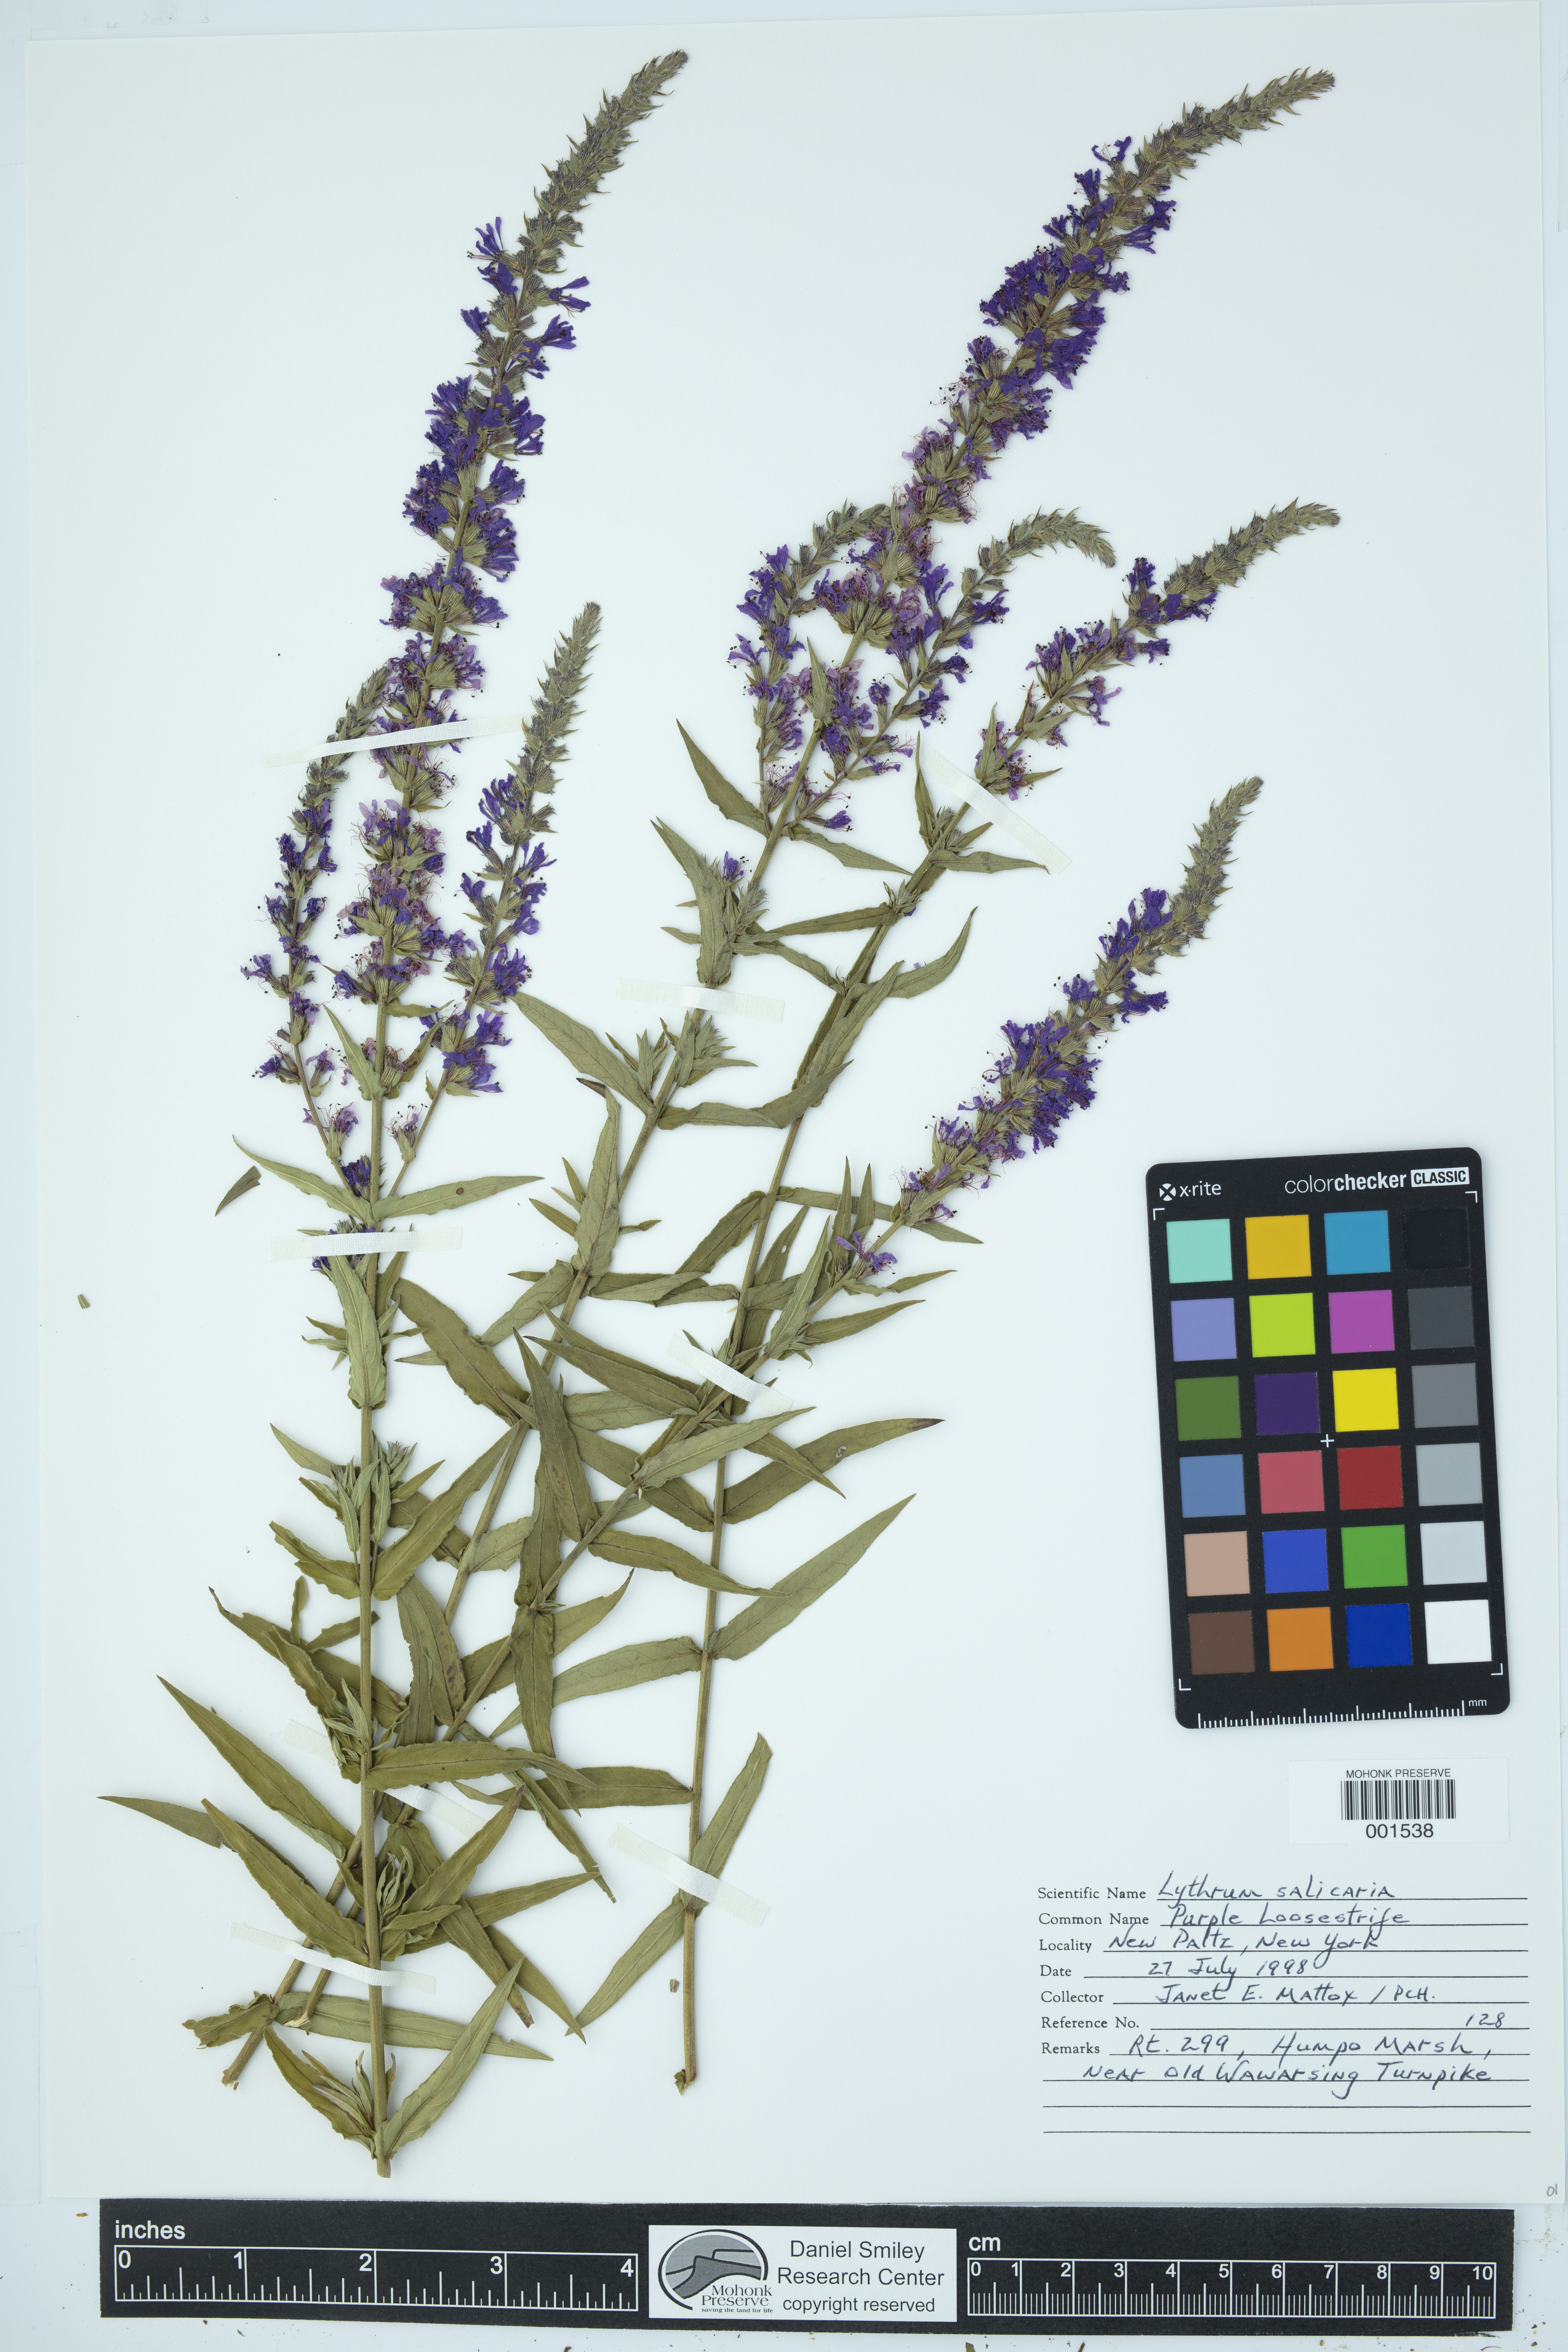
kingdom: Plantae
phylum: Tracheophyta
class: Magnoliopsida
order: Myrtales
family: Lythraceae
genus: Lythrum
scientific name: Lythrum salicaria
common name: Purple loosestrife
